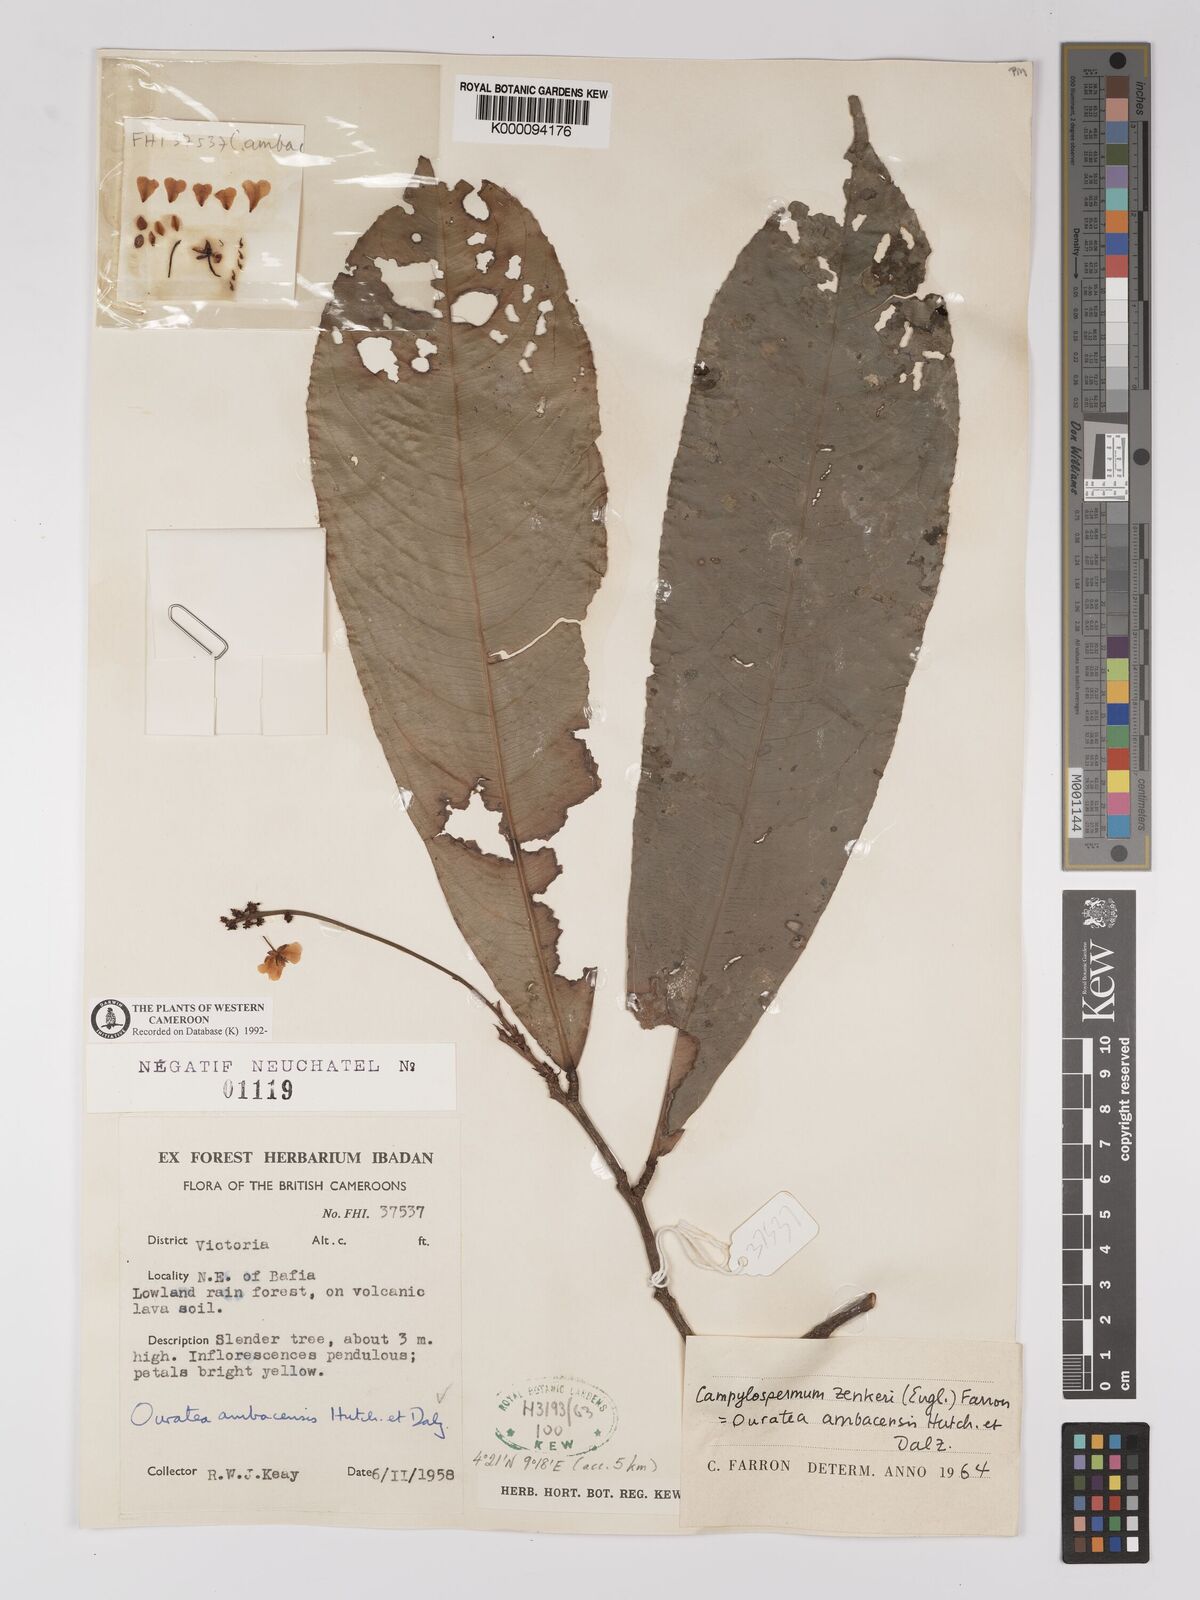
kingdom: Plantae
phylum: Tracheophyta
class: Magnoliopsida
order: Malpighiales
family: Ochnaceae
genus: Campylospermum
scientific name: Campylospermum zenkeri
